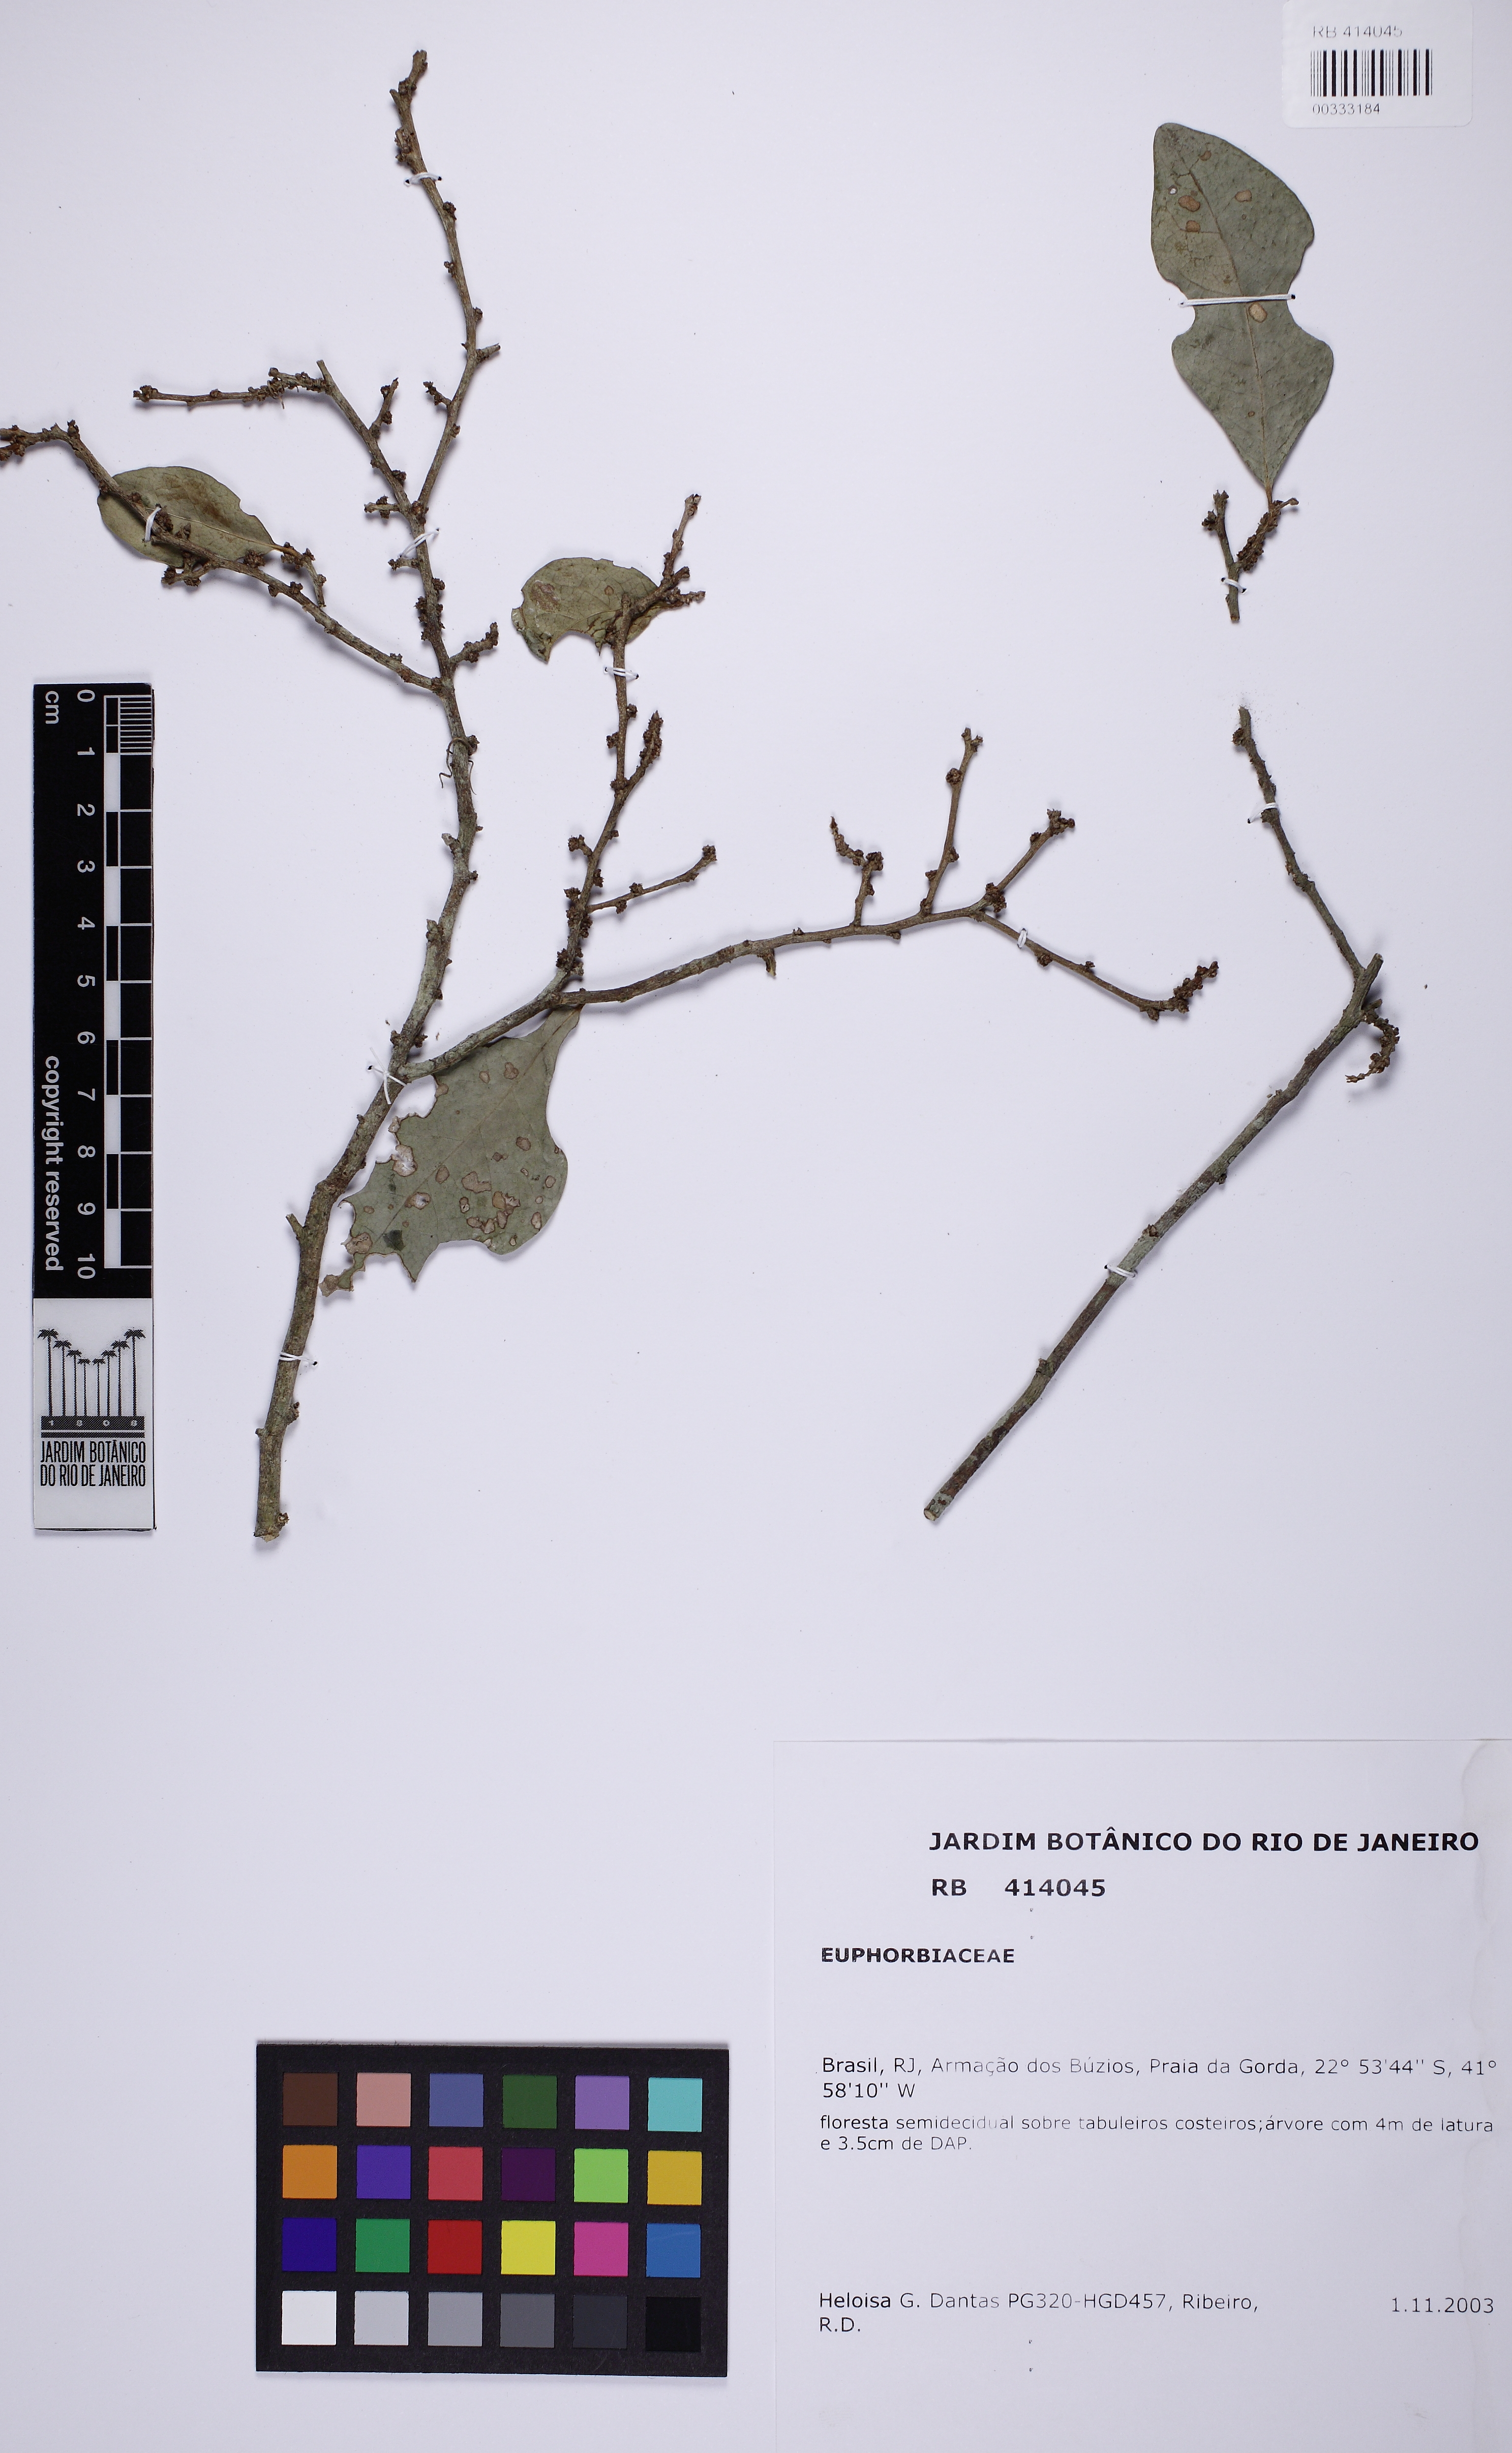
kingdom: Plantae
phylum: Tracheophyta
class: Magnoliopsida
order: Malpighiales
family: Phyllanthaceae
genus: Flueggea
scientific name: Flueggea schuechiana
